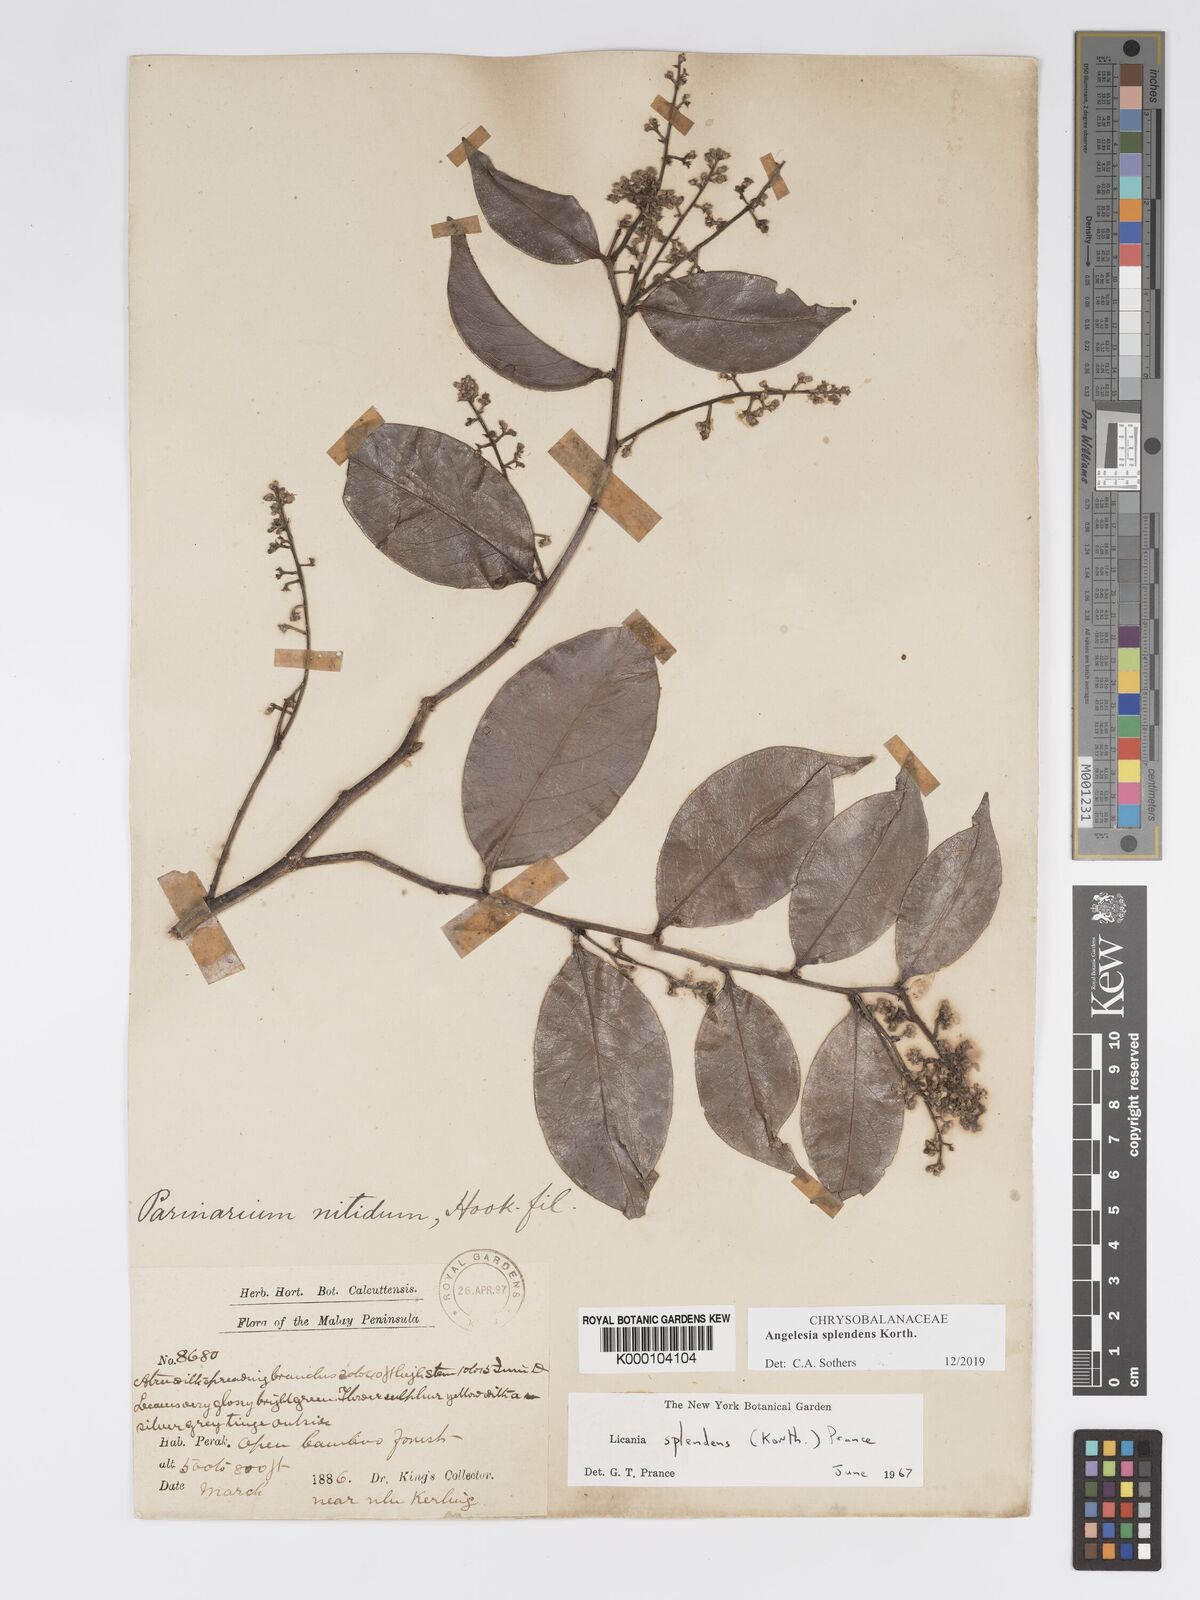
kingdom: Plantae
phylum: Tracheophyta
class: Magnoliopsida
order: Malpighiales
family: Chrysobalanaceae
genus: Angelesia
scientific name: Angelesia splendens
